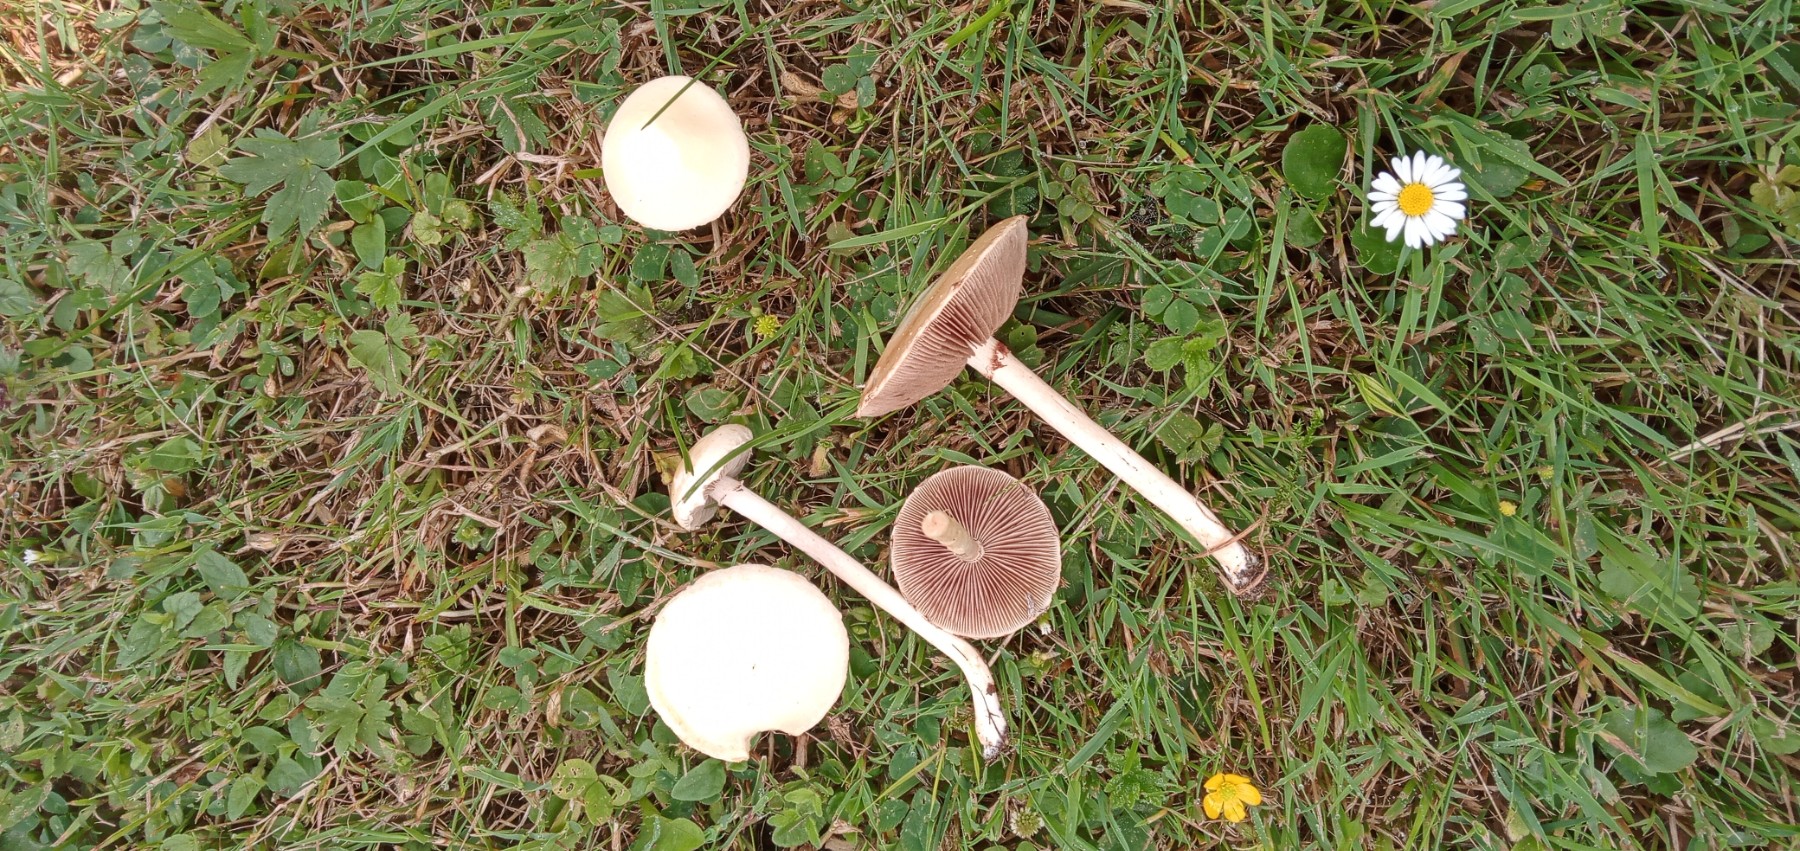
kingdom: Fungi
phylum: Basidiomycota
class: Agaricomycetes
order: Agaricales
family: Strophariaceae
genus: Agrocybe
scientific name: Agrocybe dura
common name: fastkødet agerhat
